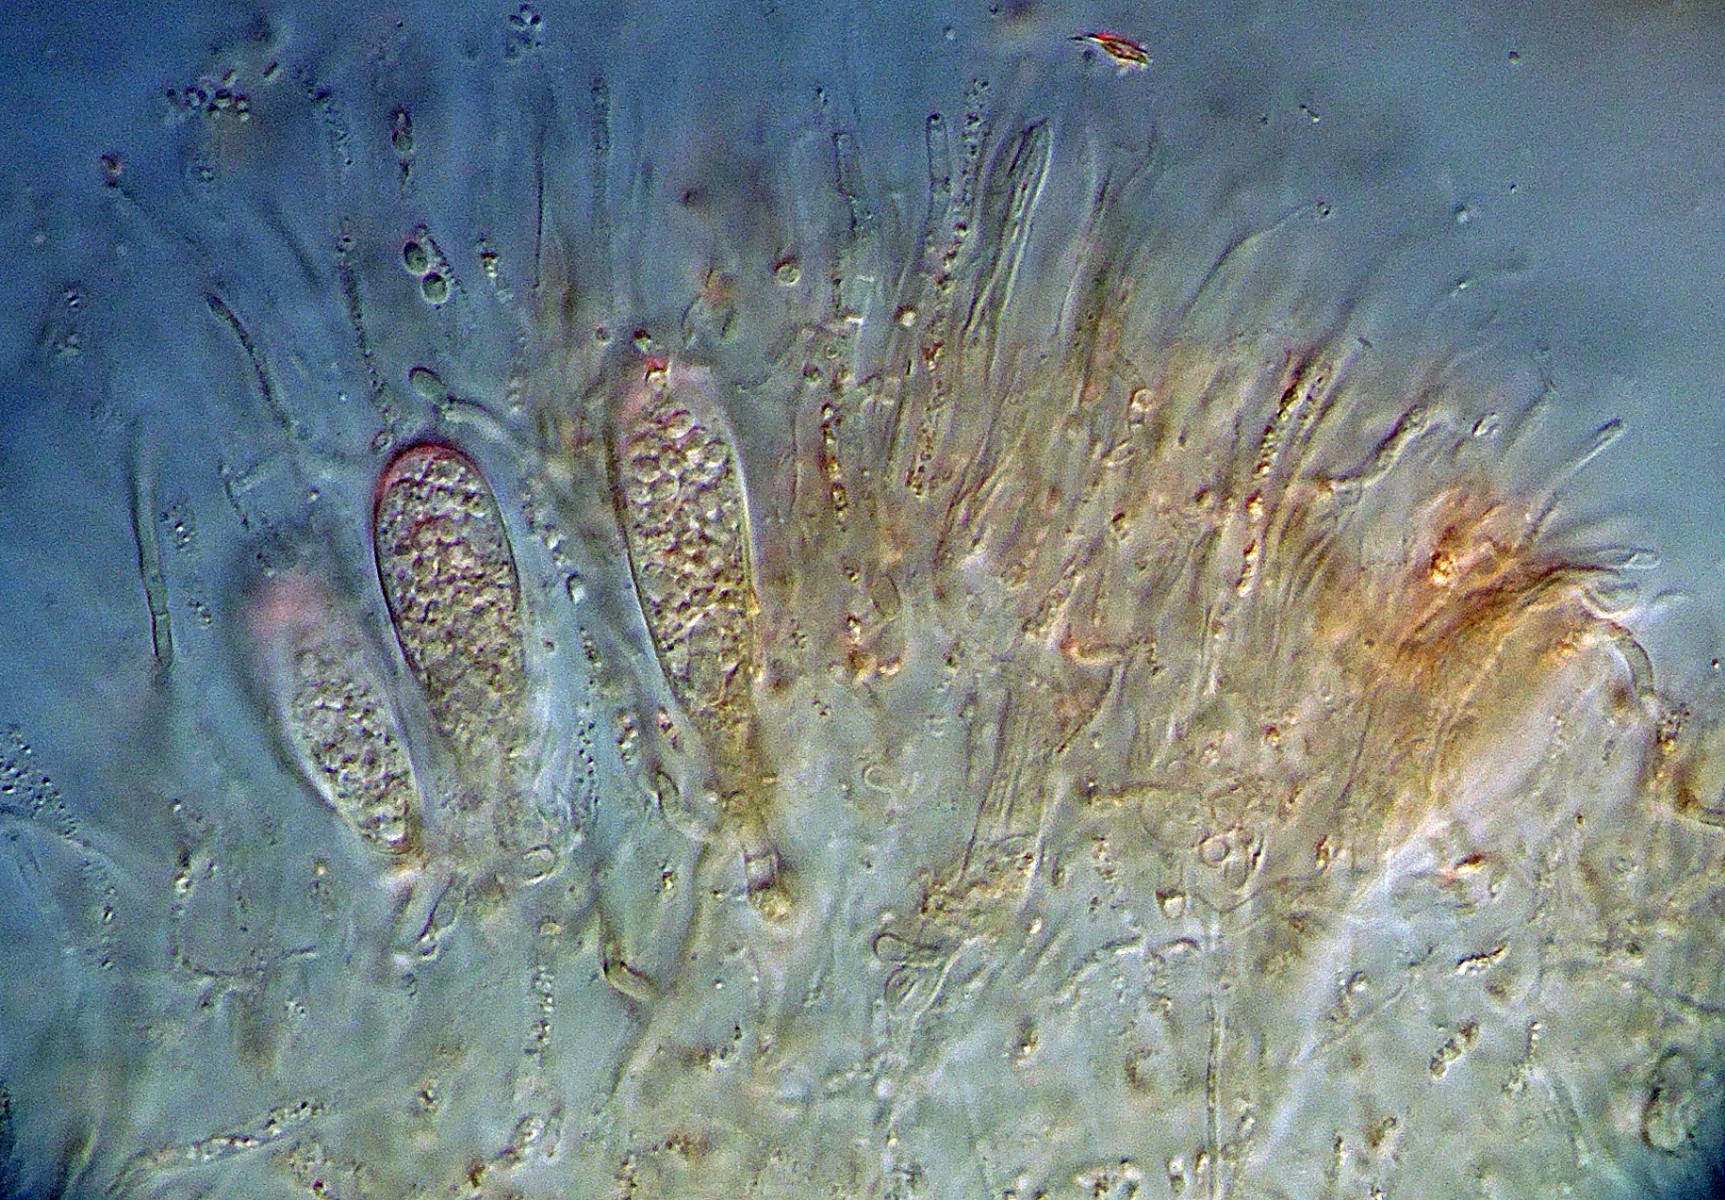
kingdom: Fungi
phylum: Ascomycota
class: Leotiomycetes
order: Phacidiales
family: Helicogoniaceae
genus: Helicogonium
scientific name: Helicogonium
